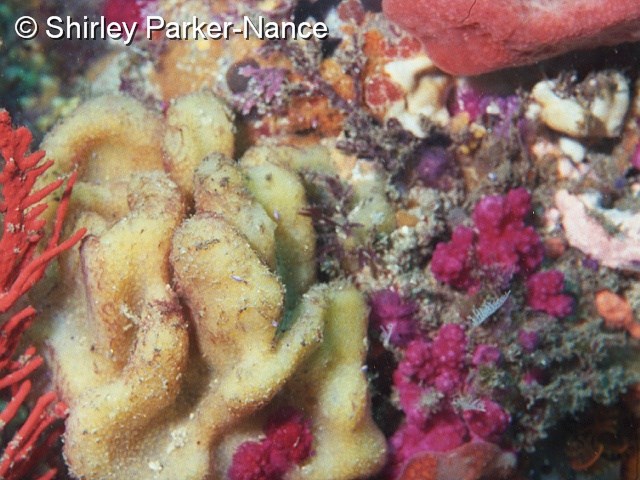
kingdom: Animalia
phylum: Chordata
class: Ascidiacea
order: Aplousobranchia
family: Polycitoridae
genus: Eudistoma
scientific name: Eudistoma
